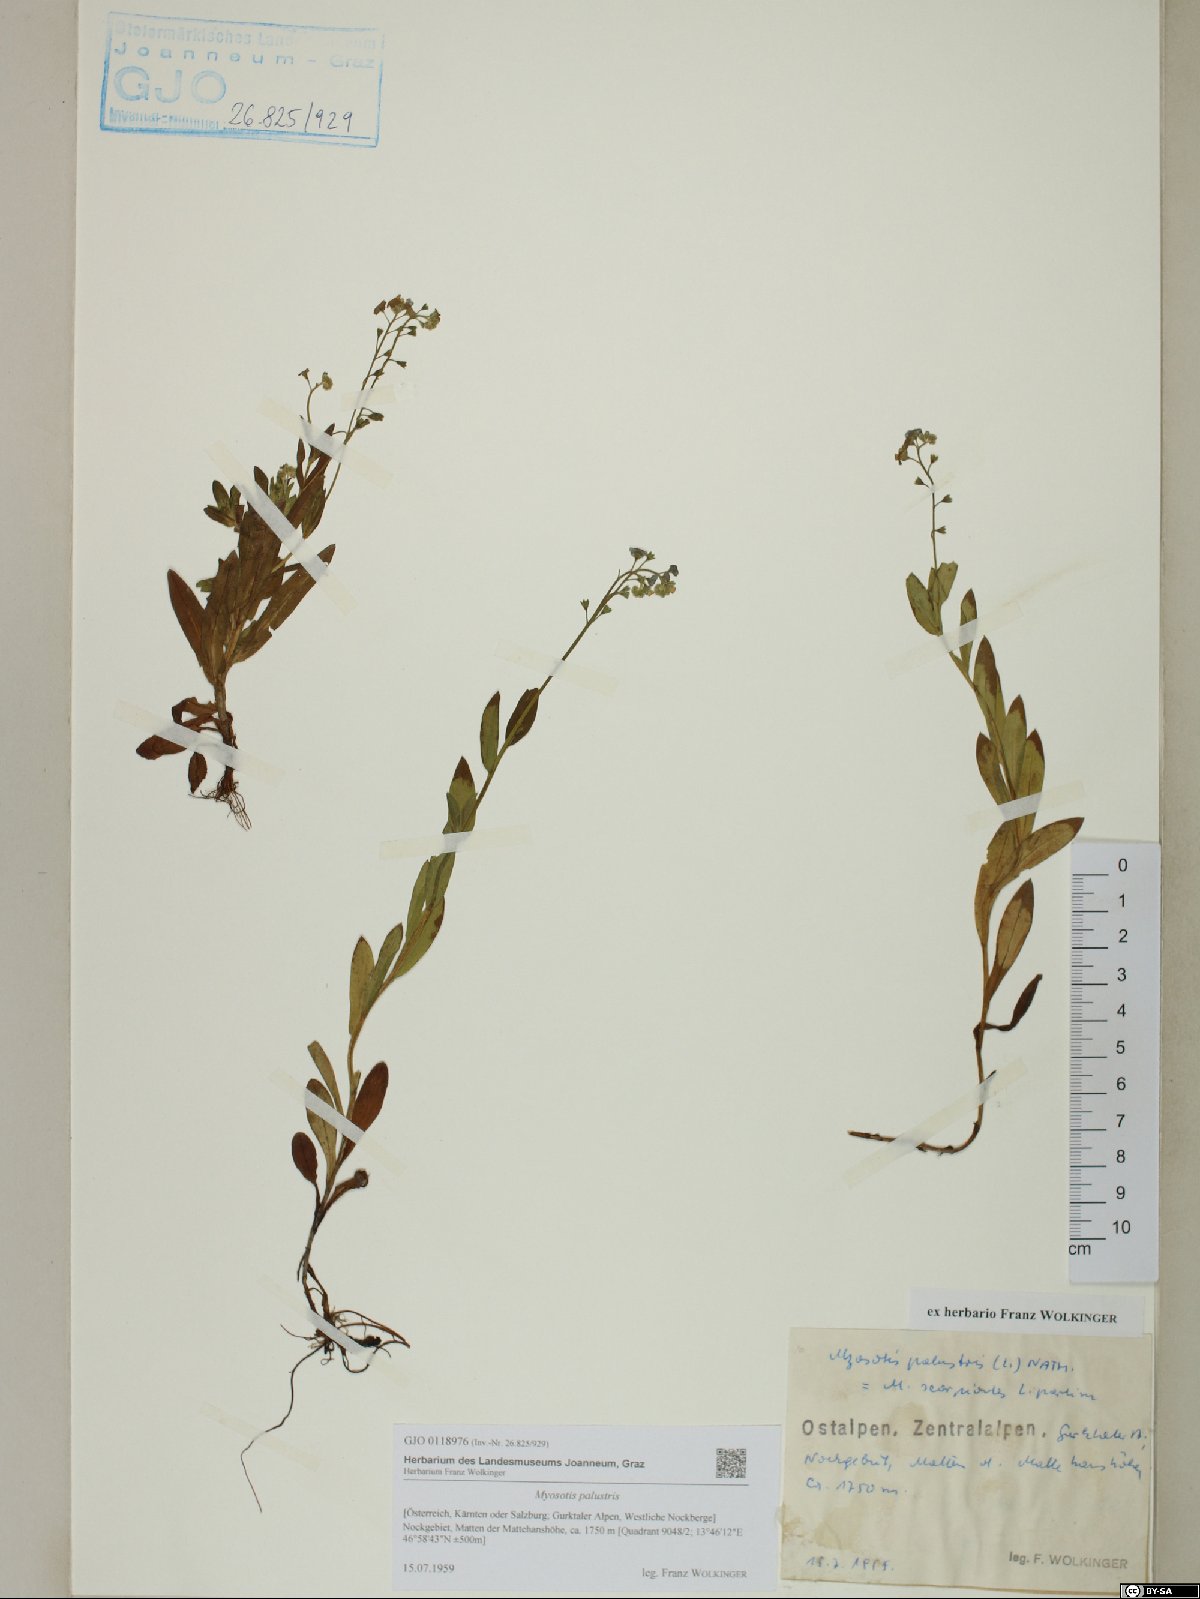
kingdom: Plantae
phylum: Tracheophyta
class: Magnoliopsida
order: Boraginales
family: Boraginaceae
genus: Myosotis
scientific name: Myosotis scorpioides
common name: Water forget-me-not
